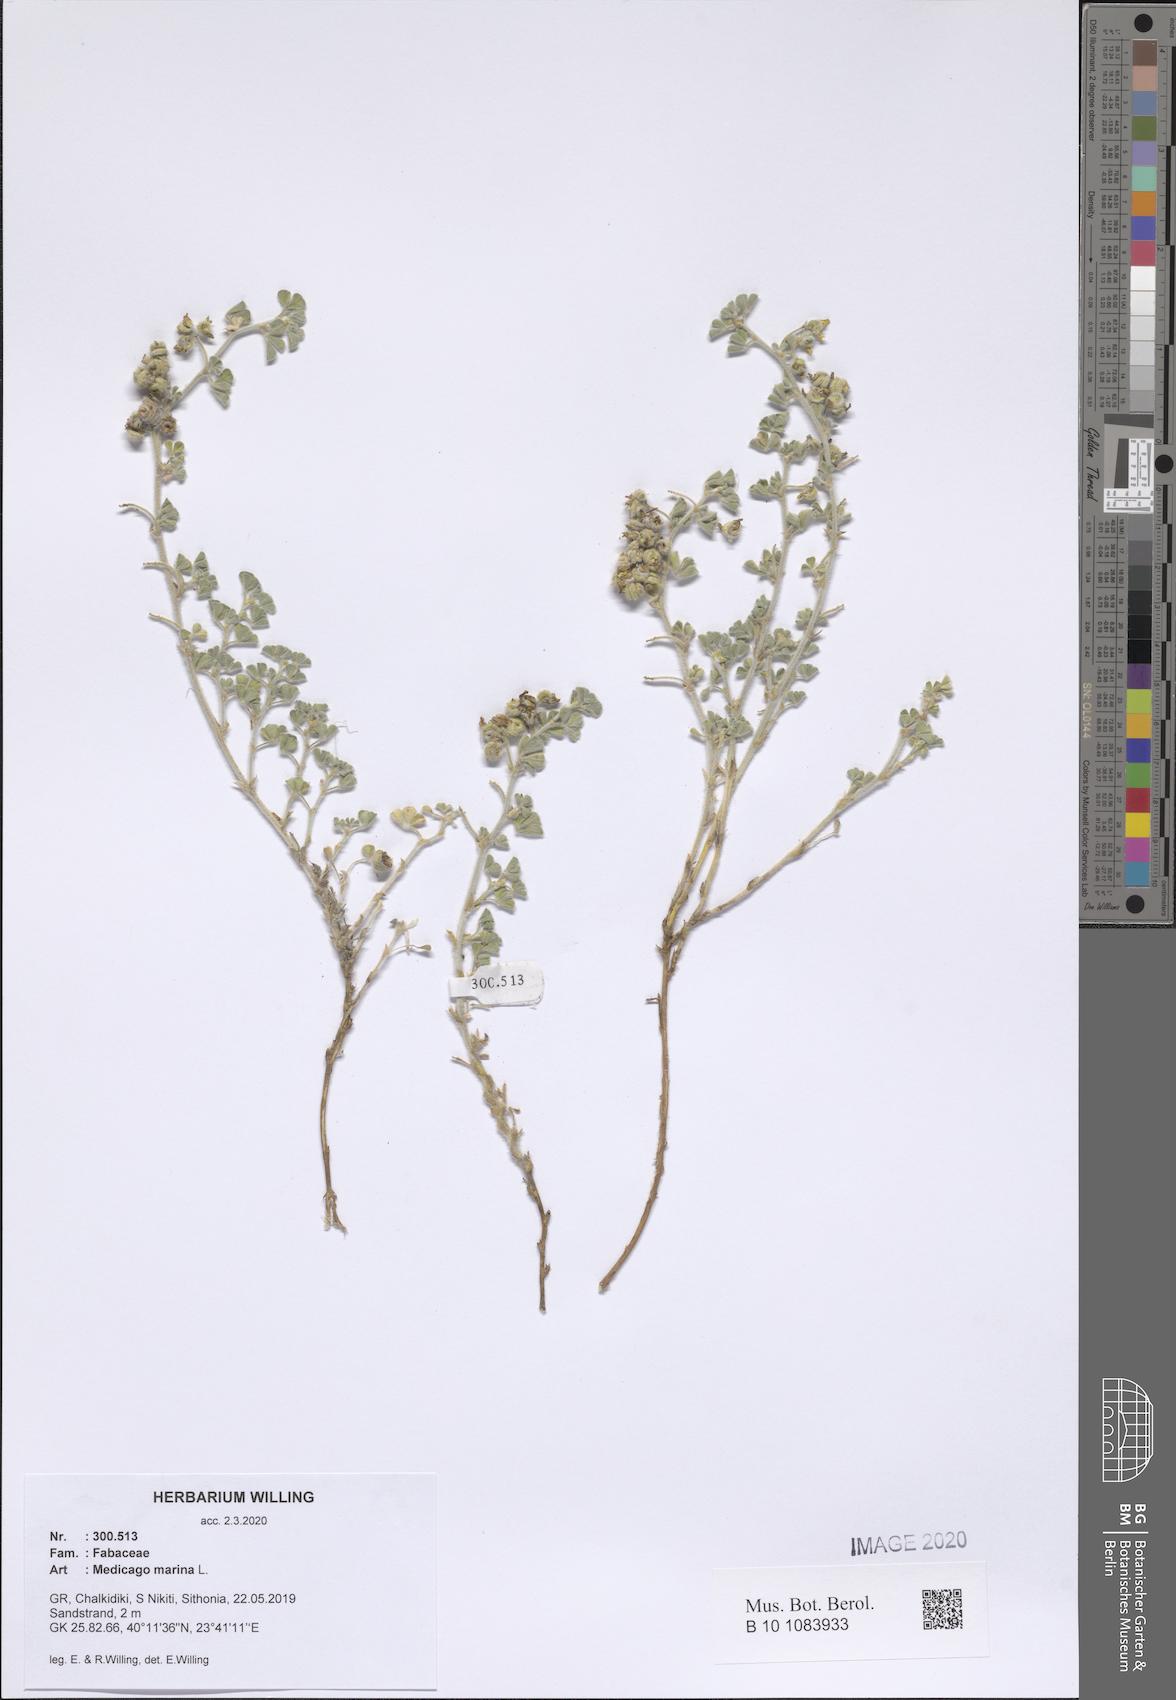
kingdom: Plantae
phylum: Tracheophyta
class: Magnoliopsida
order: Fabales
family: Fabaceae
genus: Medicago
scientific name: Medicago marina
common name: Sea medick
